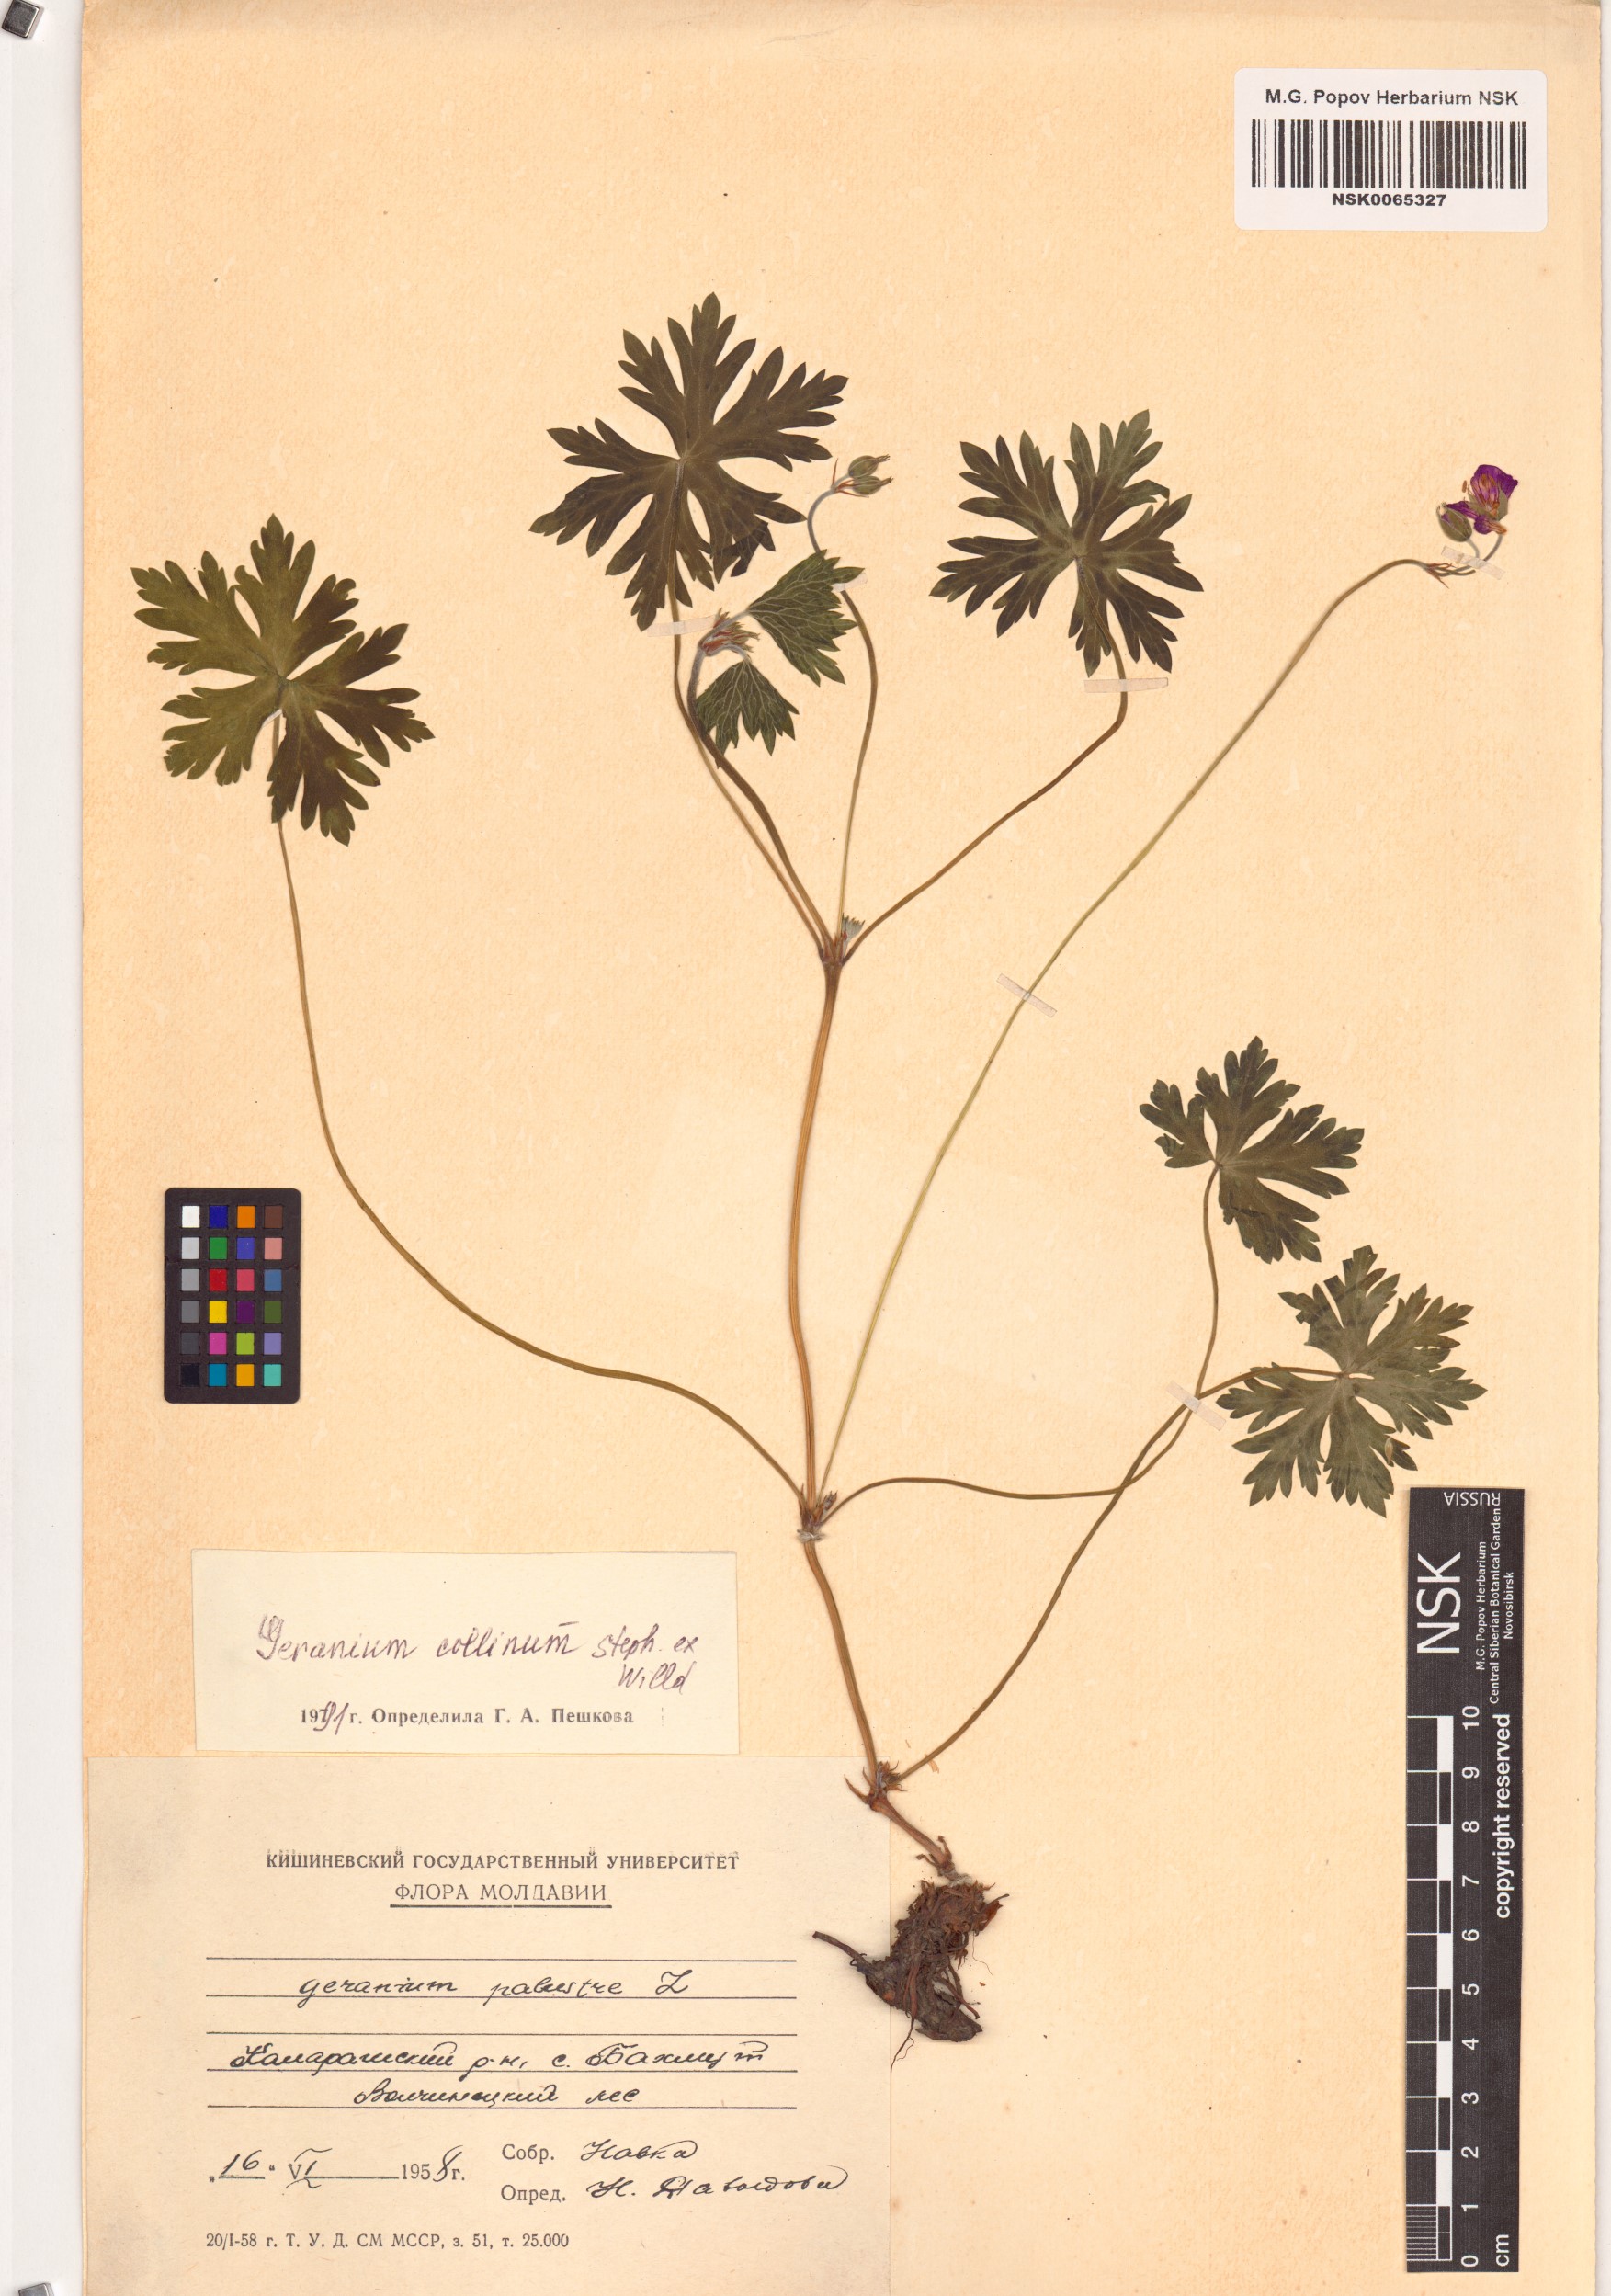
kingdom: Plantae
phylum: Tracheophyta
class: Magnoliopsida
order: Geraniales
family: Geraniaceae
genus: Geranium
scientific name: Geranium collinum
